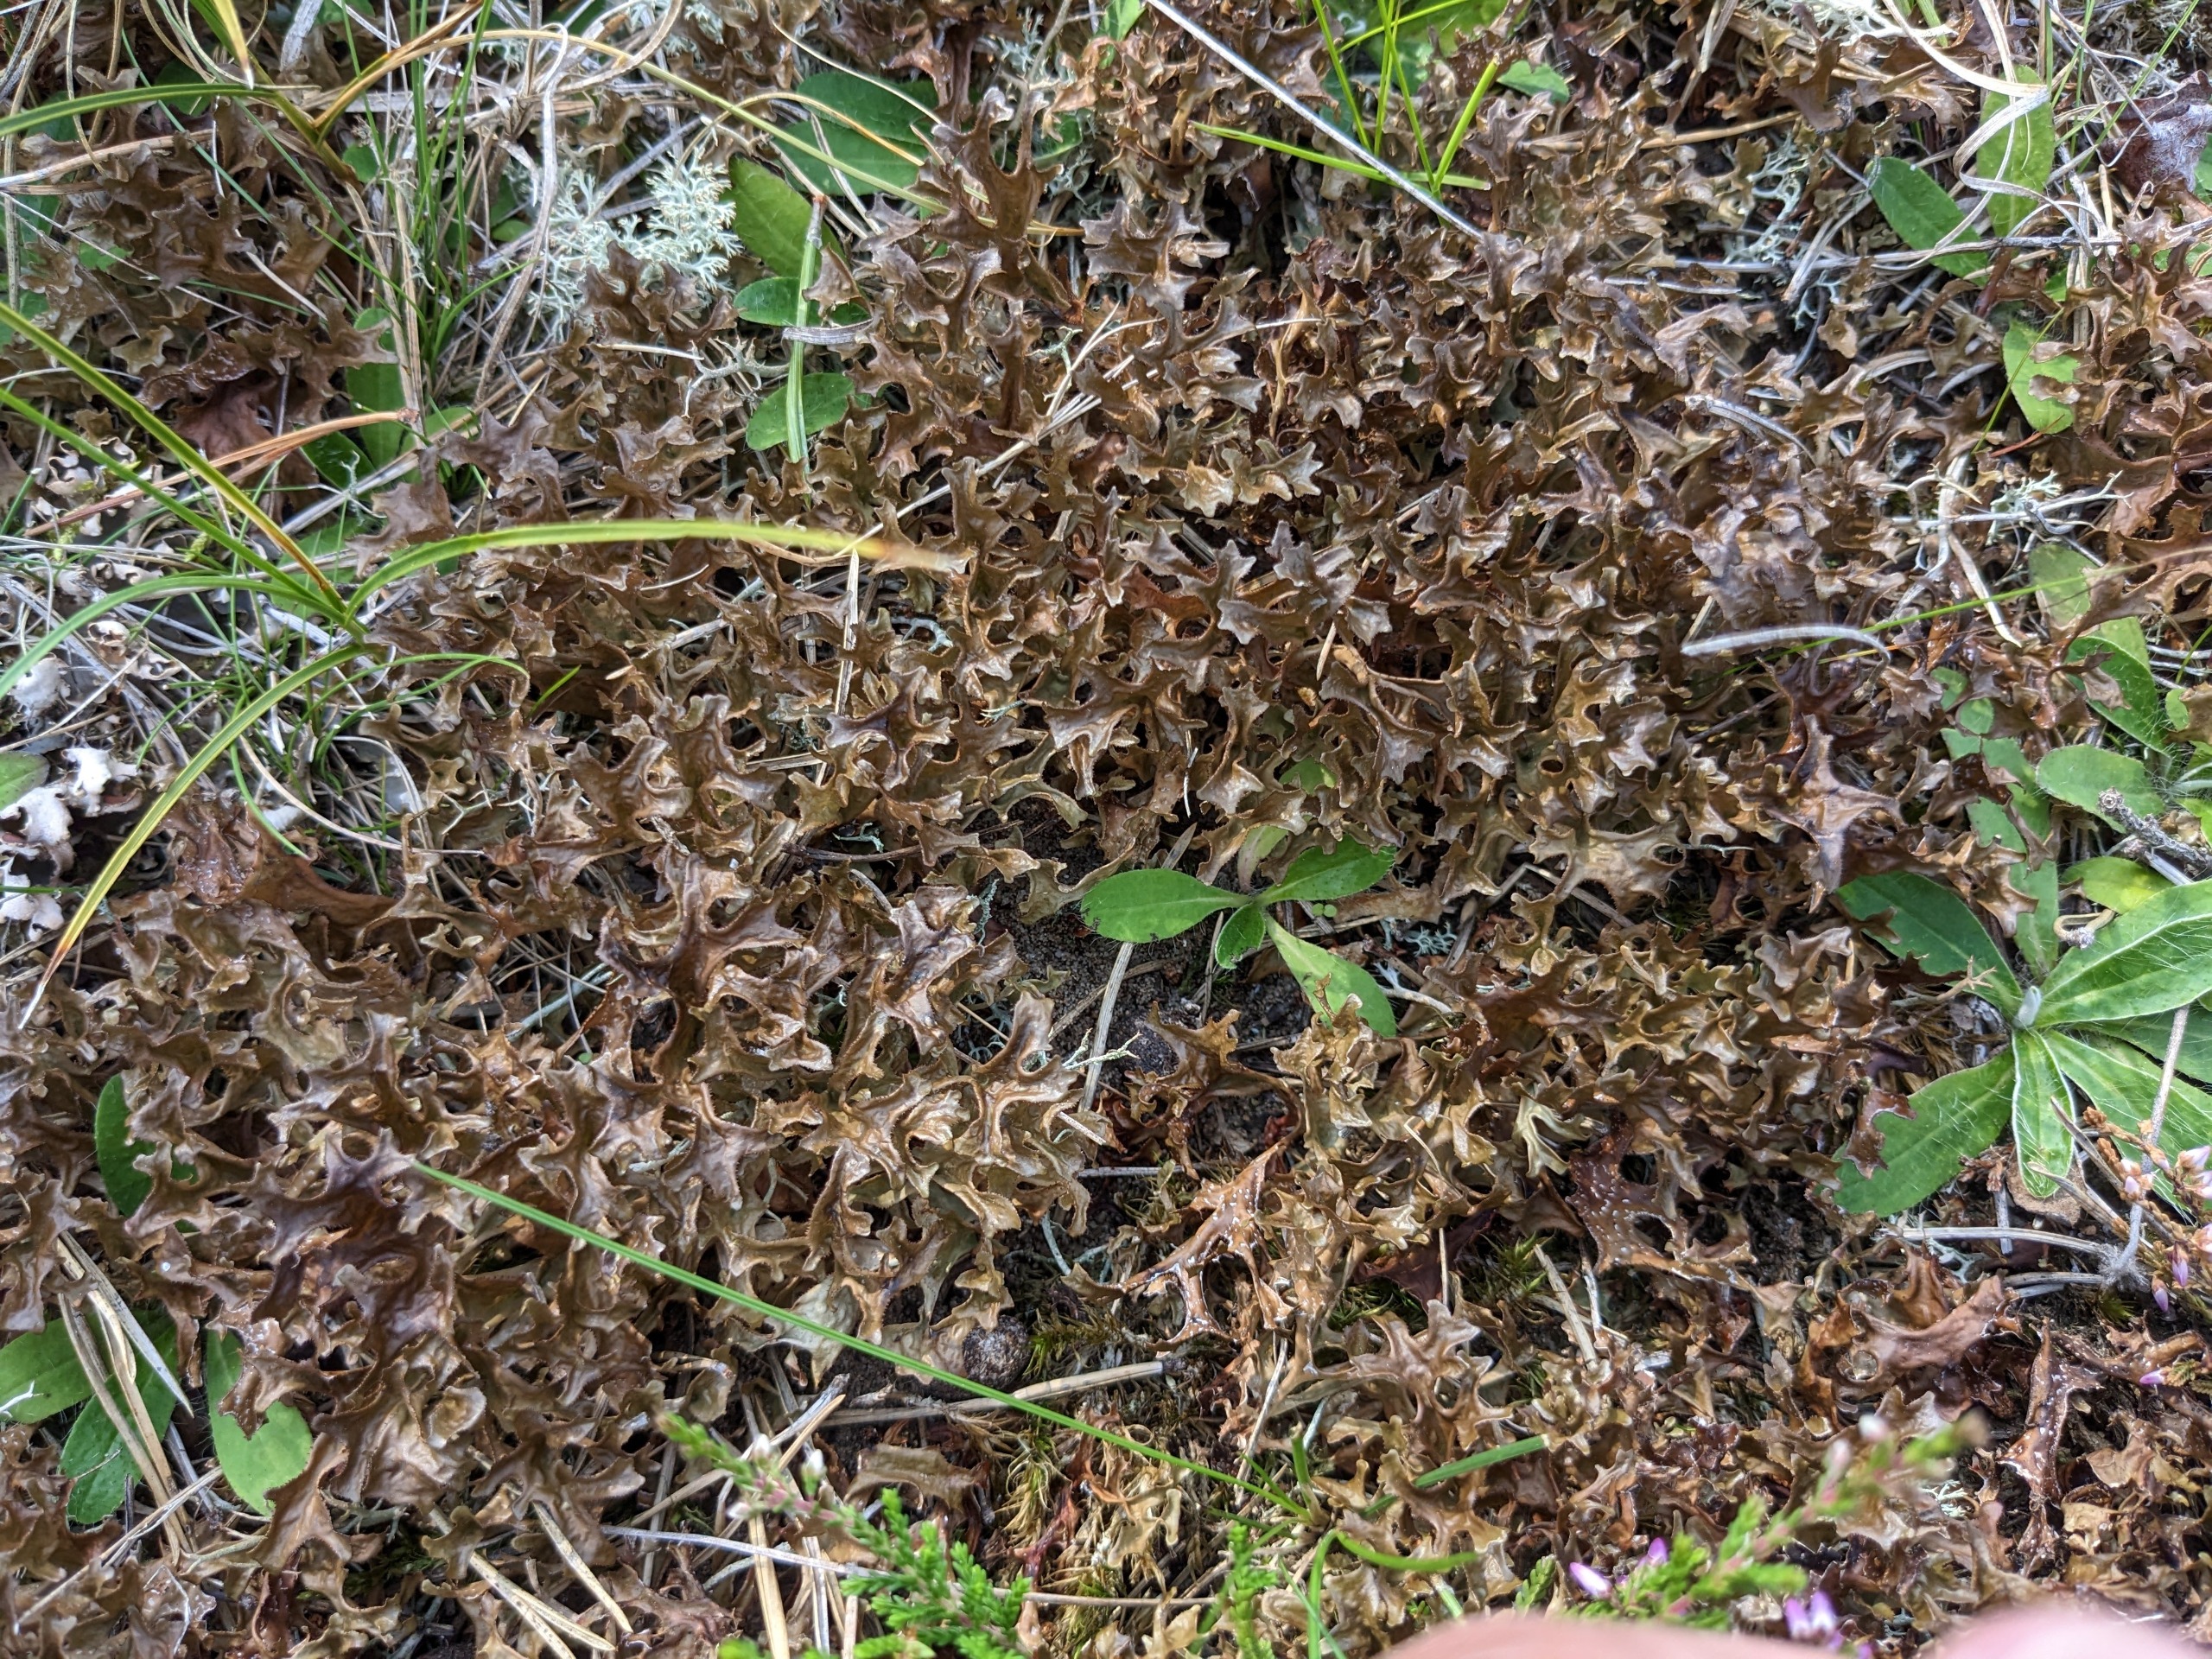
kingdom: Fungi
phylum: Ascomycota
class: Lecanoromycetes
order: Lecanorales
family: Parmeliaceae
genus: Cetraria
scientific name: Cetraria islandica
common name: Islandsk kruslav
